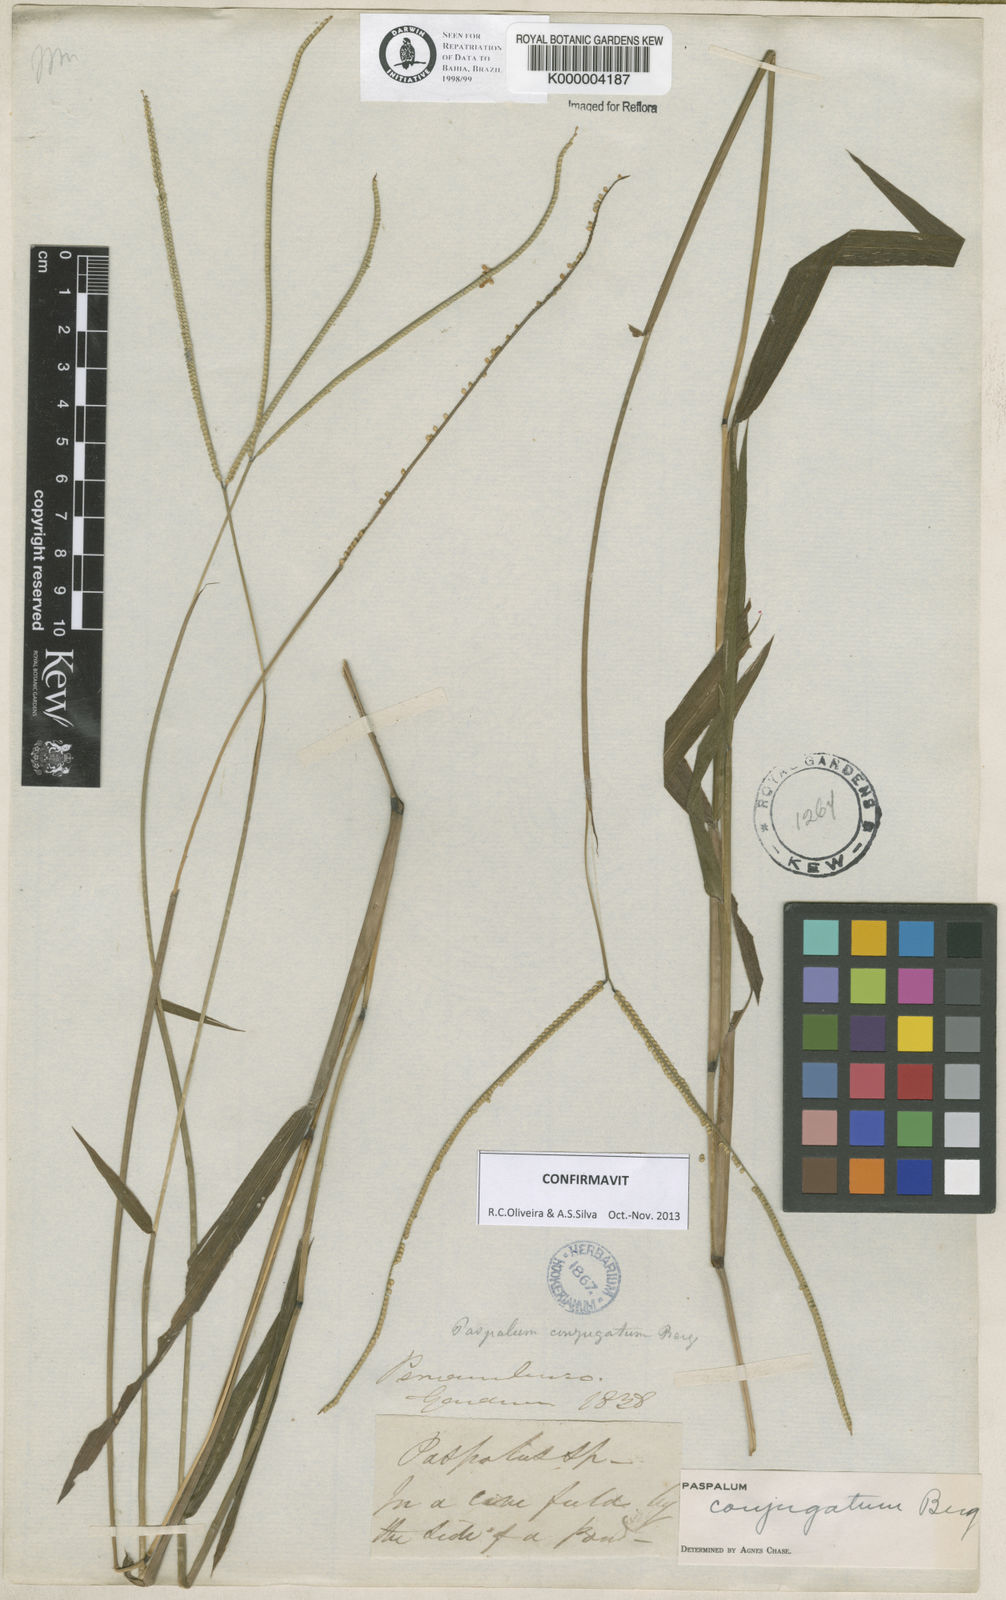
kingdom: Plantae
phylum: Tracheophyta
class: Liliopsida
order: Poales
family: Poaceae
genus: Paspalum
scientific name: Paspalum conjugatum
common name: Hilograss
